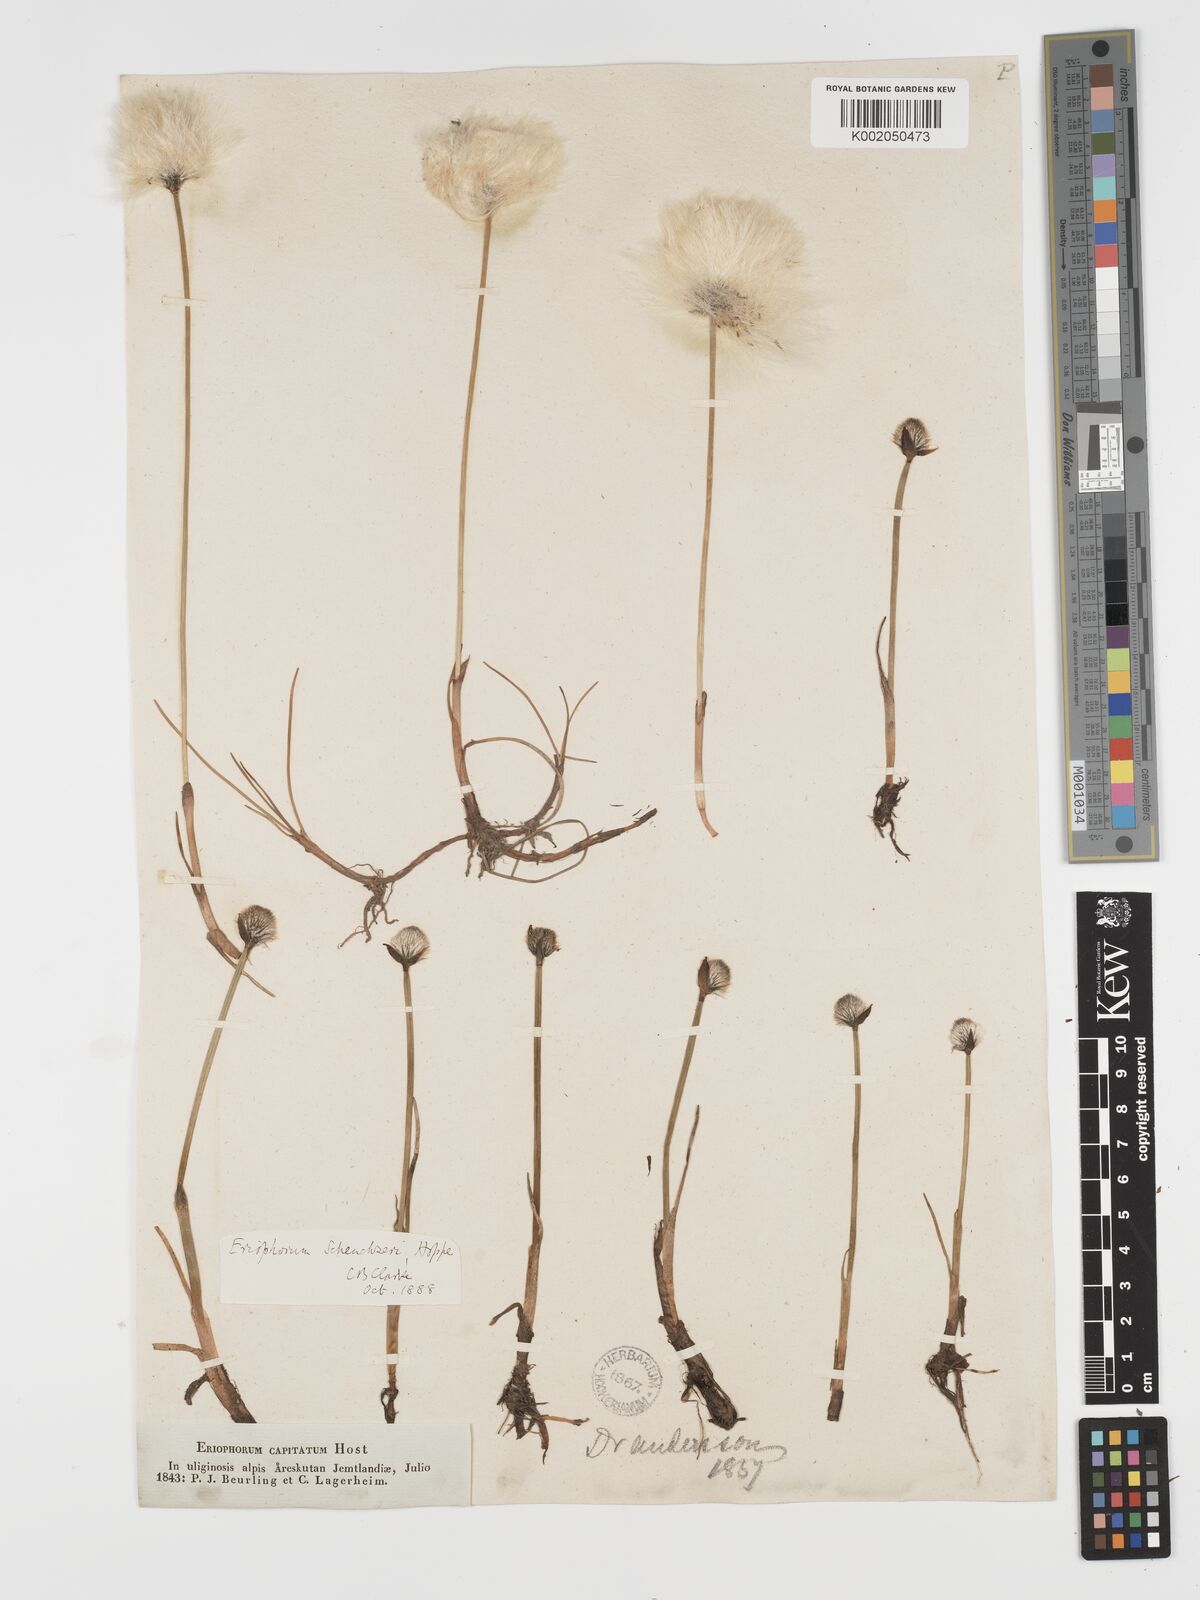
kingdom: Plantae
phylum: Tracheophyta
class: Liliopsida
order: Poales
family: Cyperaceae
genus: Eriophorum
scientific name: Eriophorum scheuchzeri
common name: Scheuchzer's cottongrass
